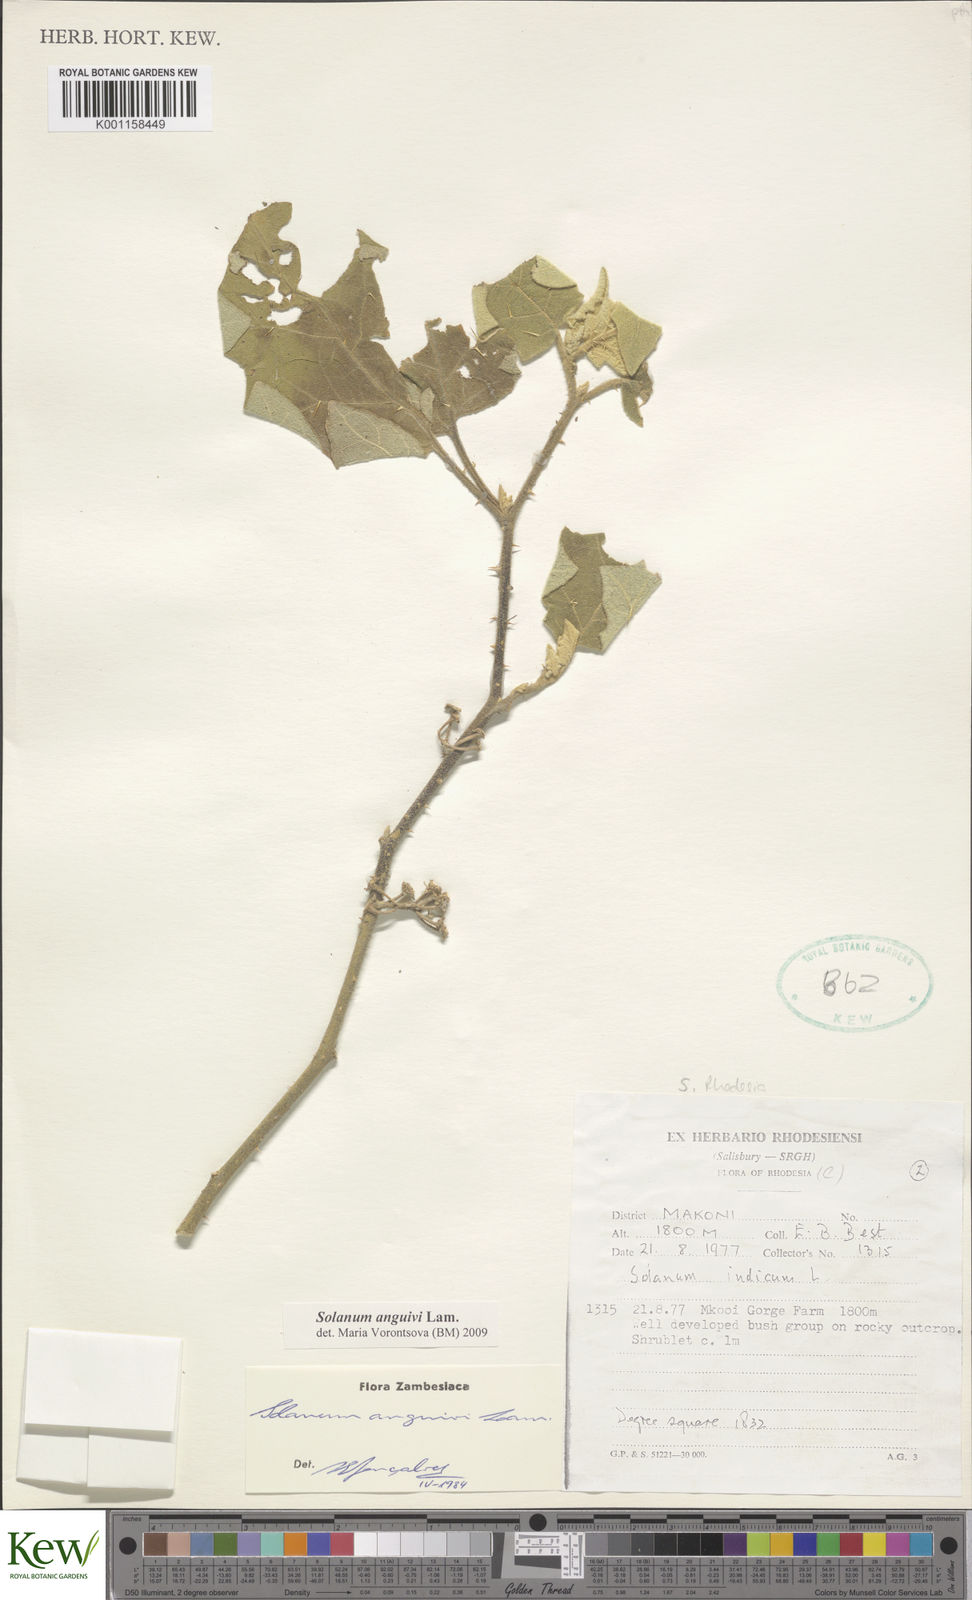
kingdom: Plantae
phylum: Tracheophyta
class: Magnoliopsida
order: Solanales
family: Solanaceae
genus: Solanum
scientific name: Solanum anguivi
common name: Forest bitterberry
